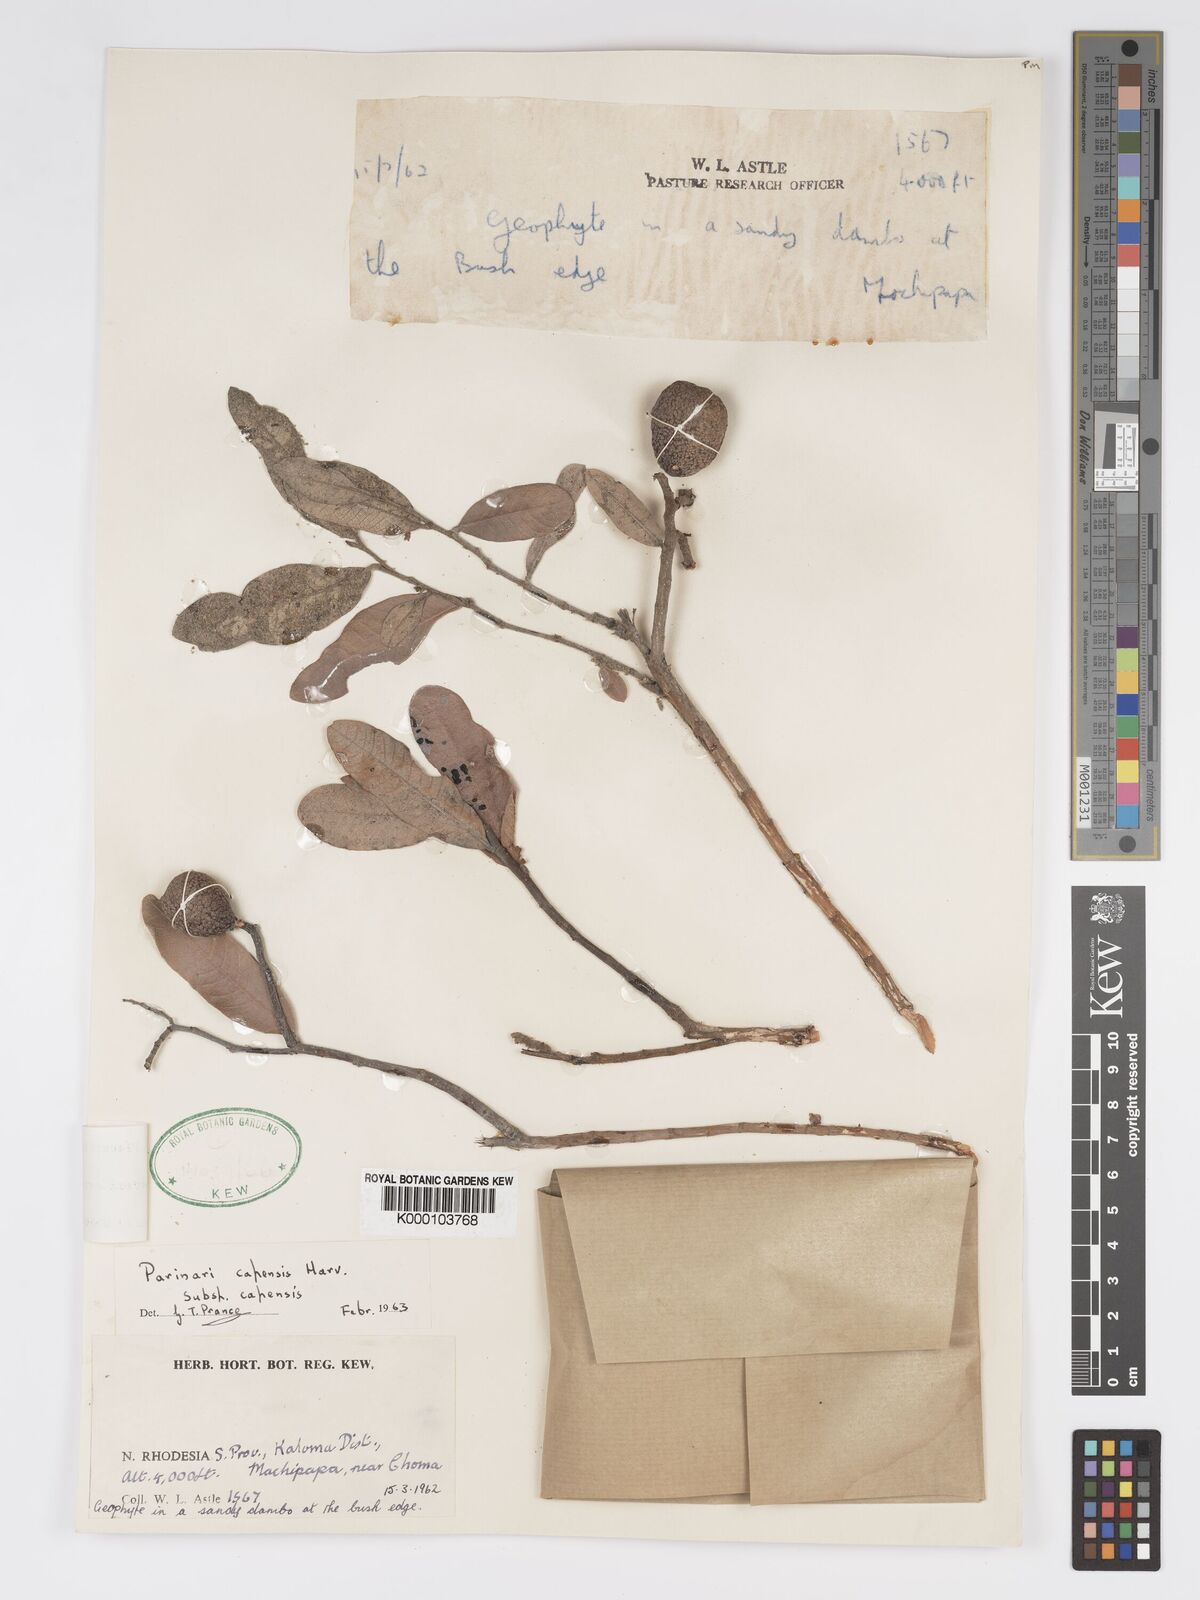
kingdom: Plantae
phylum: Tracheophyta
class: Magnoliopsida
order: Malpighiales
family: Chrysobalanaceae
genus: Parinari
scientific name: Parinari capensis
